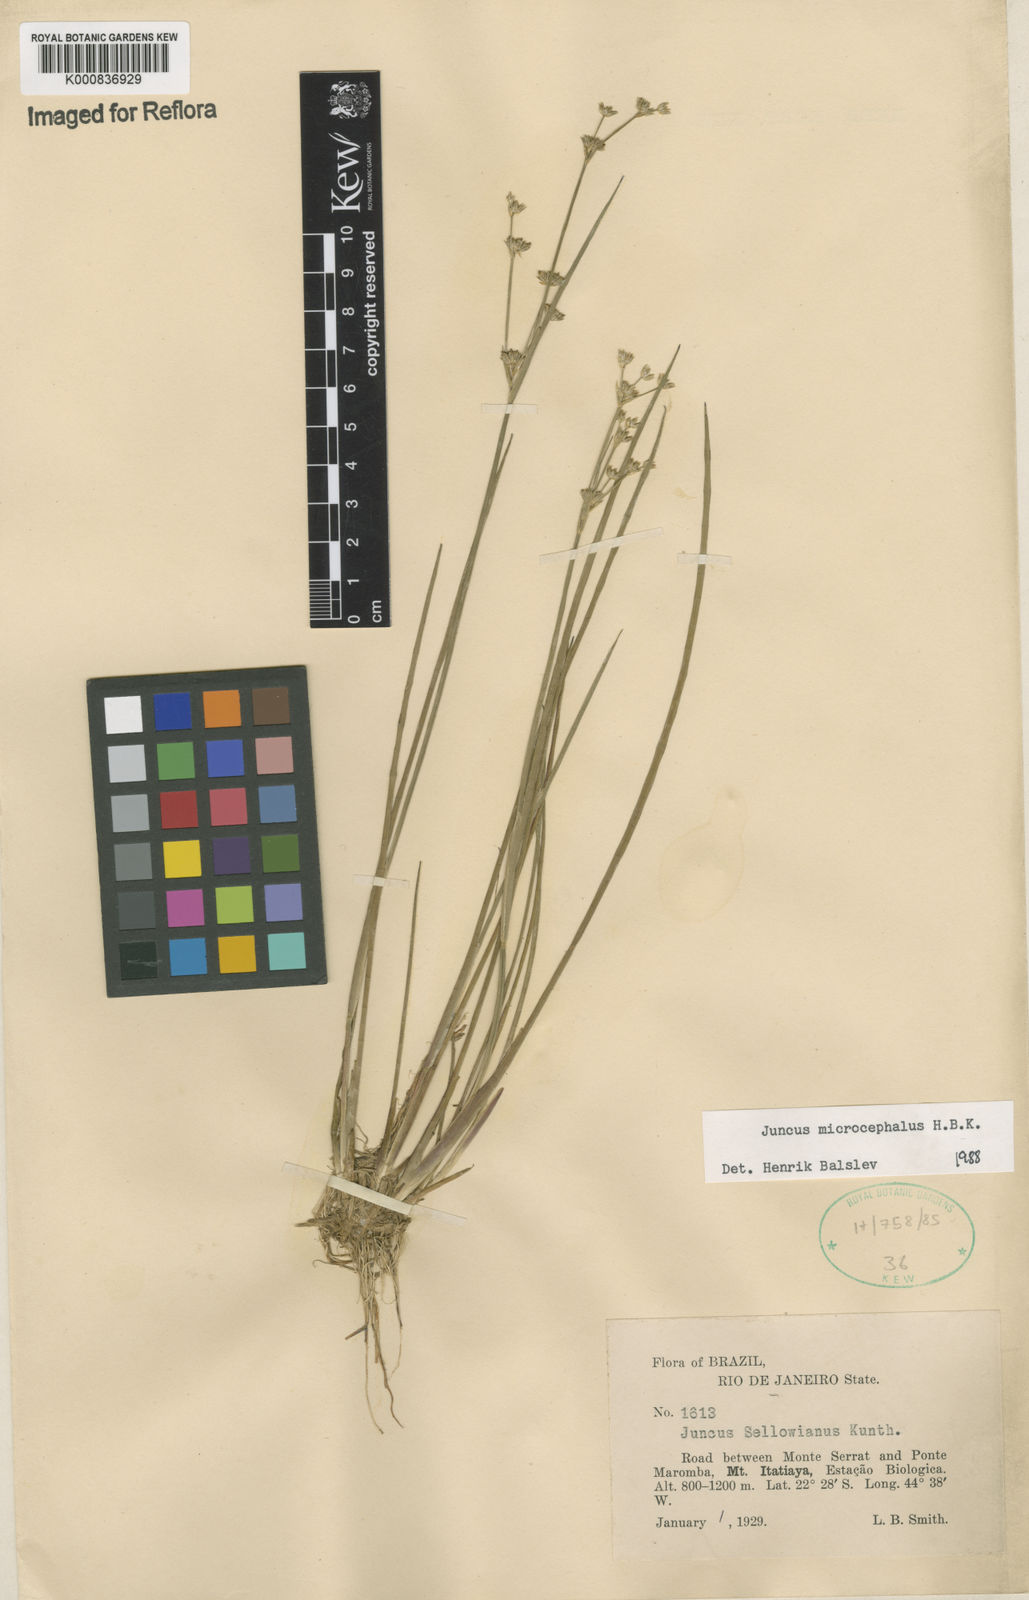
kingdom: Plantae
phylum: Tracheophyta
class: Liliopsida
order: Poales
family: Juncaceae
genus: Juncus
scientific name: Juncus microcephalus
